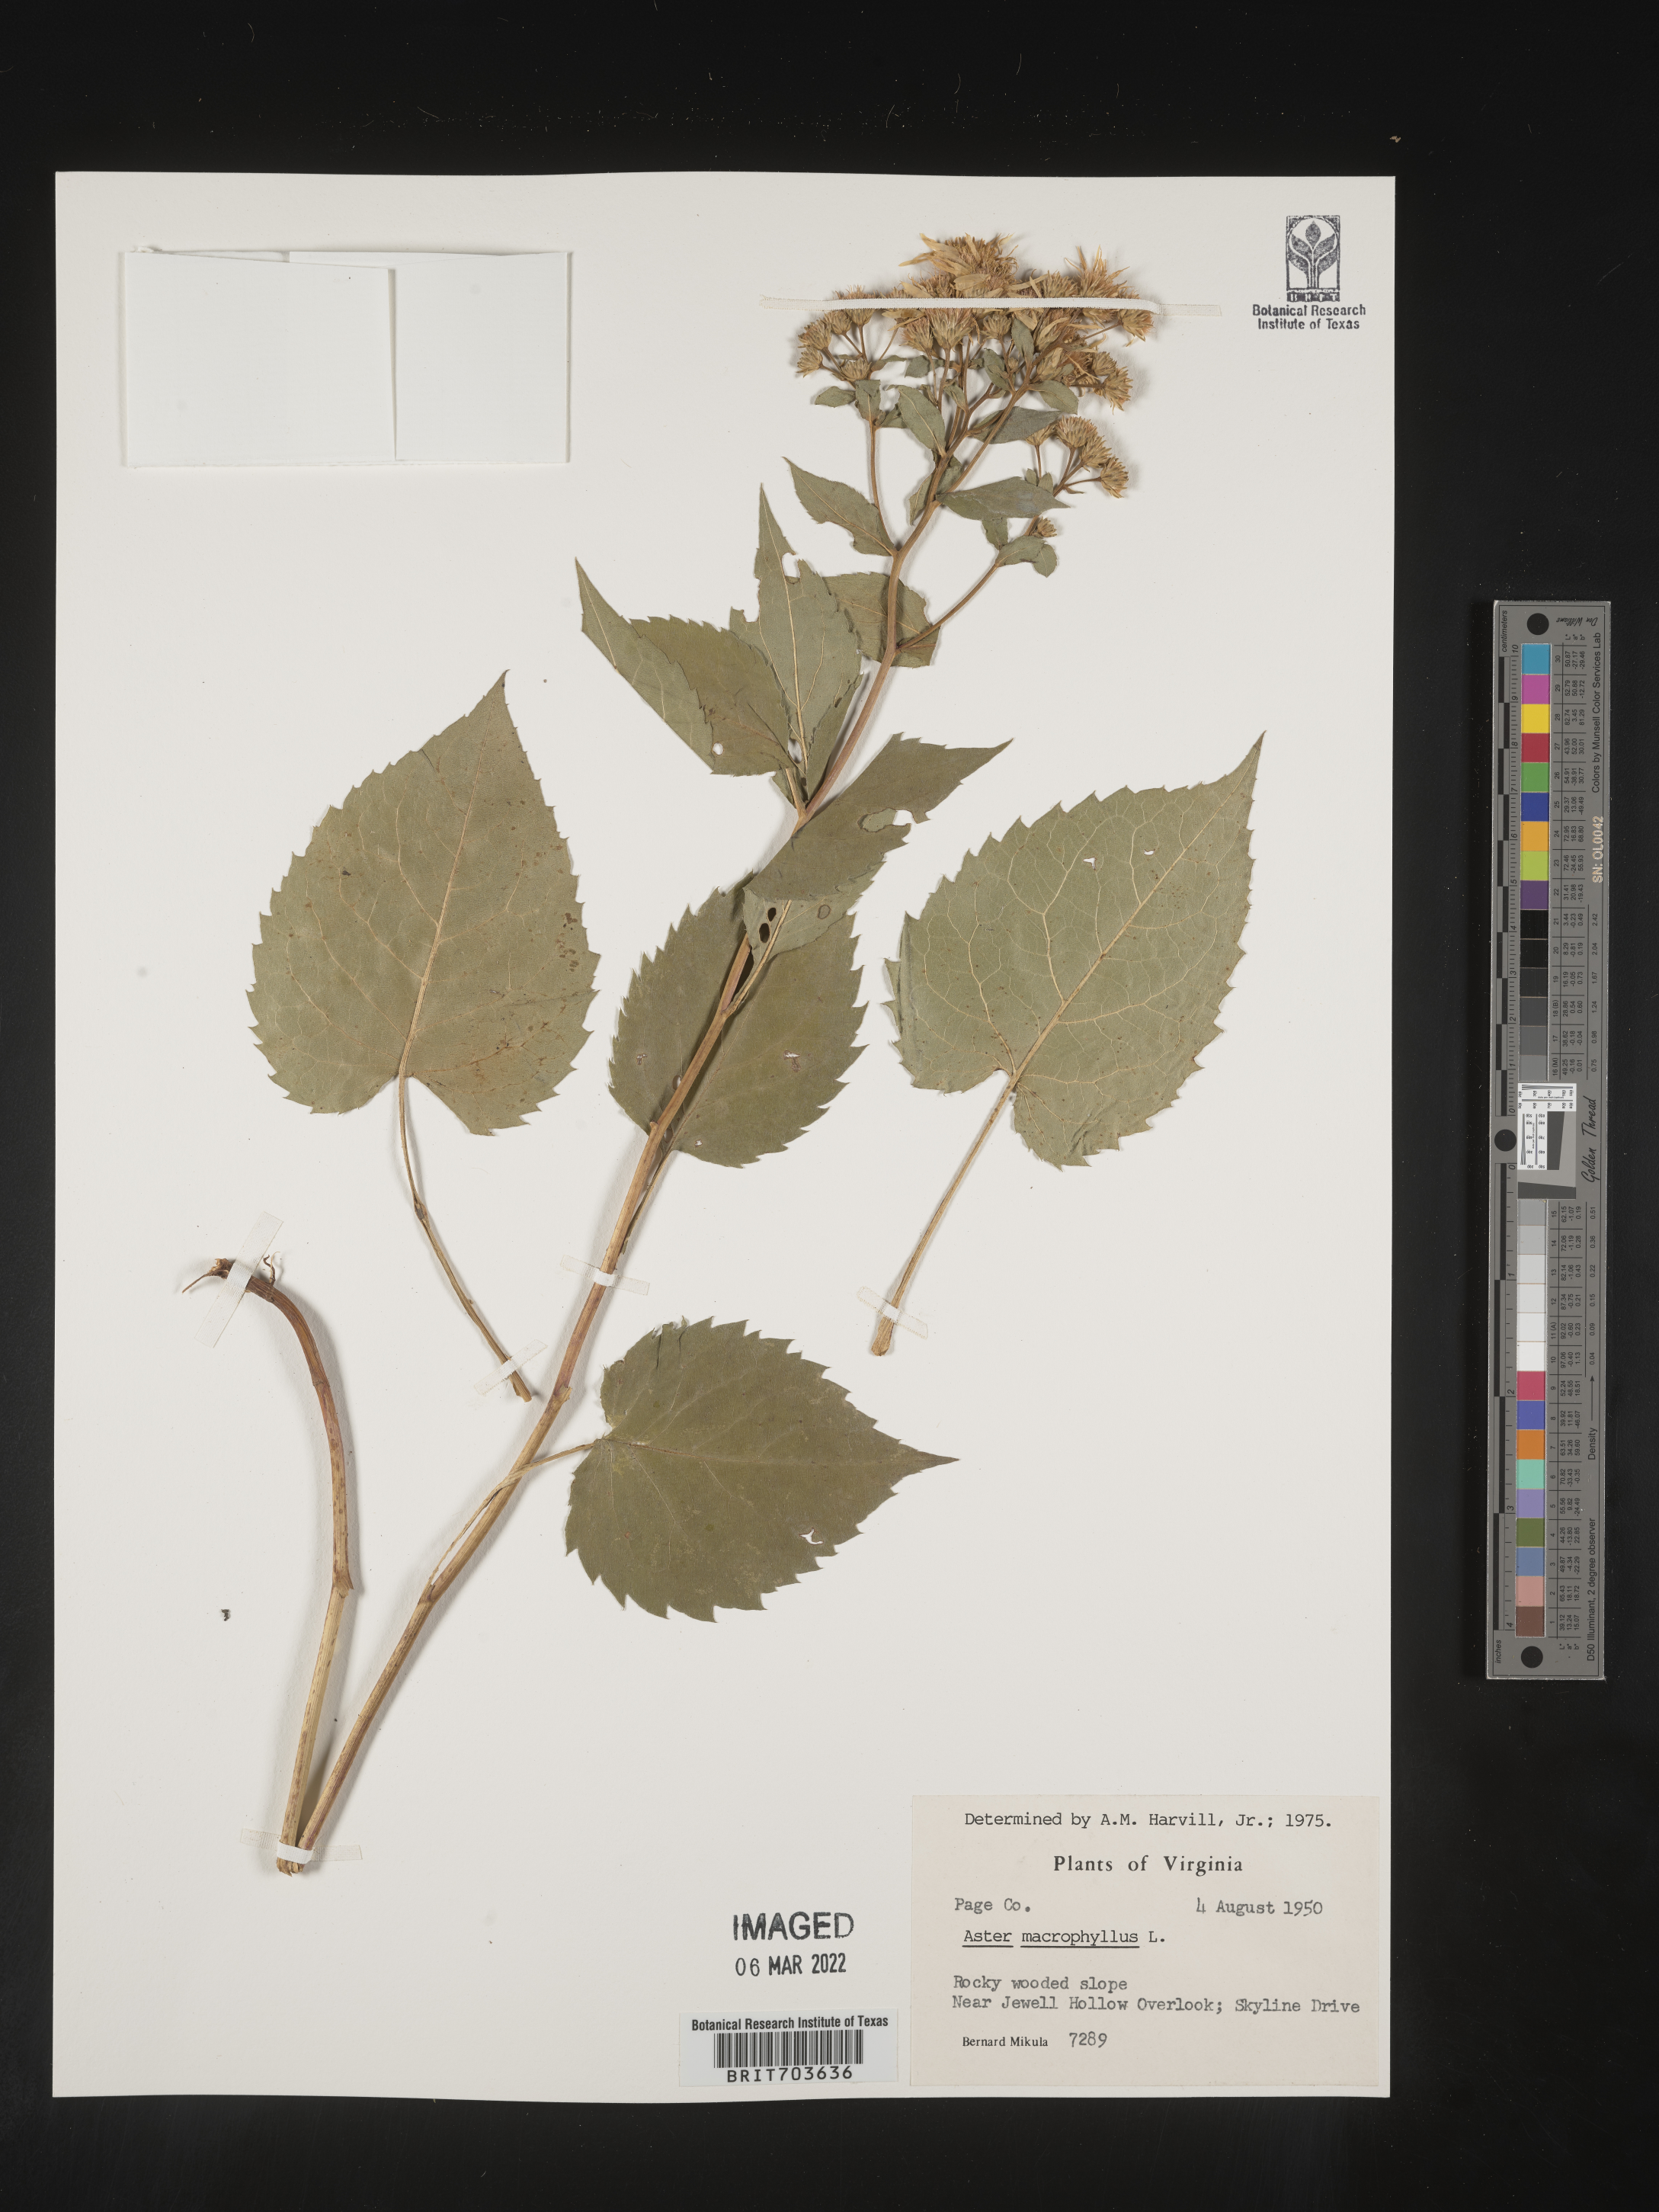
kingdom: Plantae
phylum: Tracheophyta
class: Magnoliopsida
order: Asterales
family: Asteraceae
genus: Eurybia
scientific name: Eurybia macrophylla
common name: Big-leaved aster
